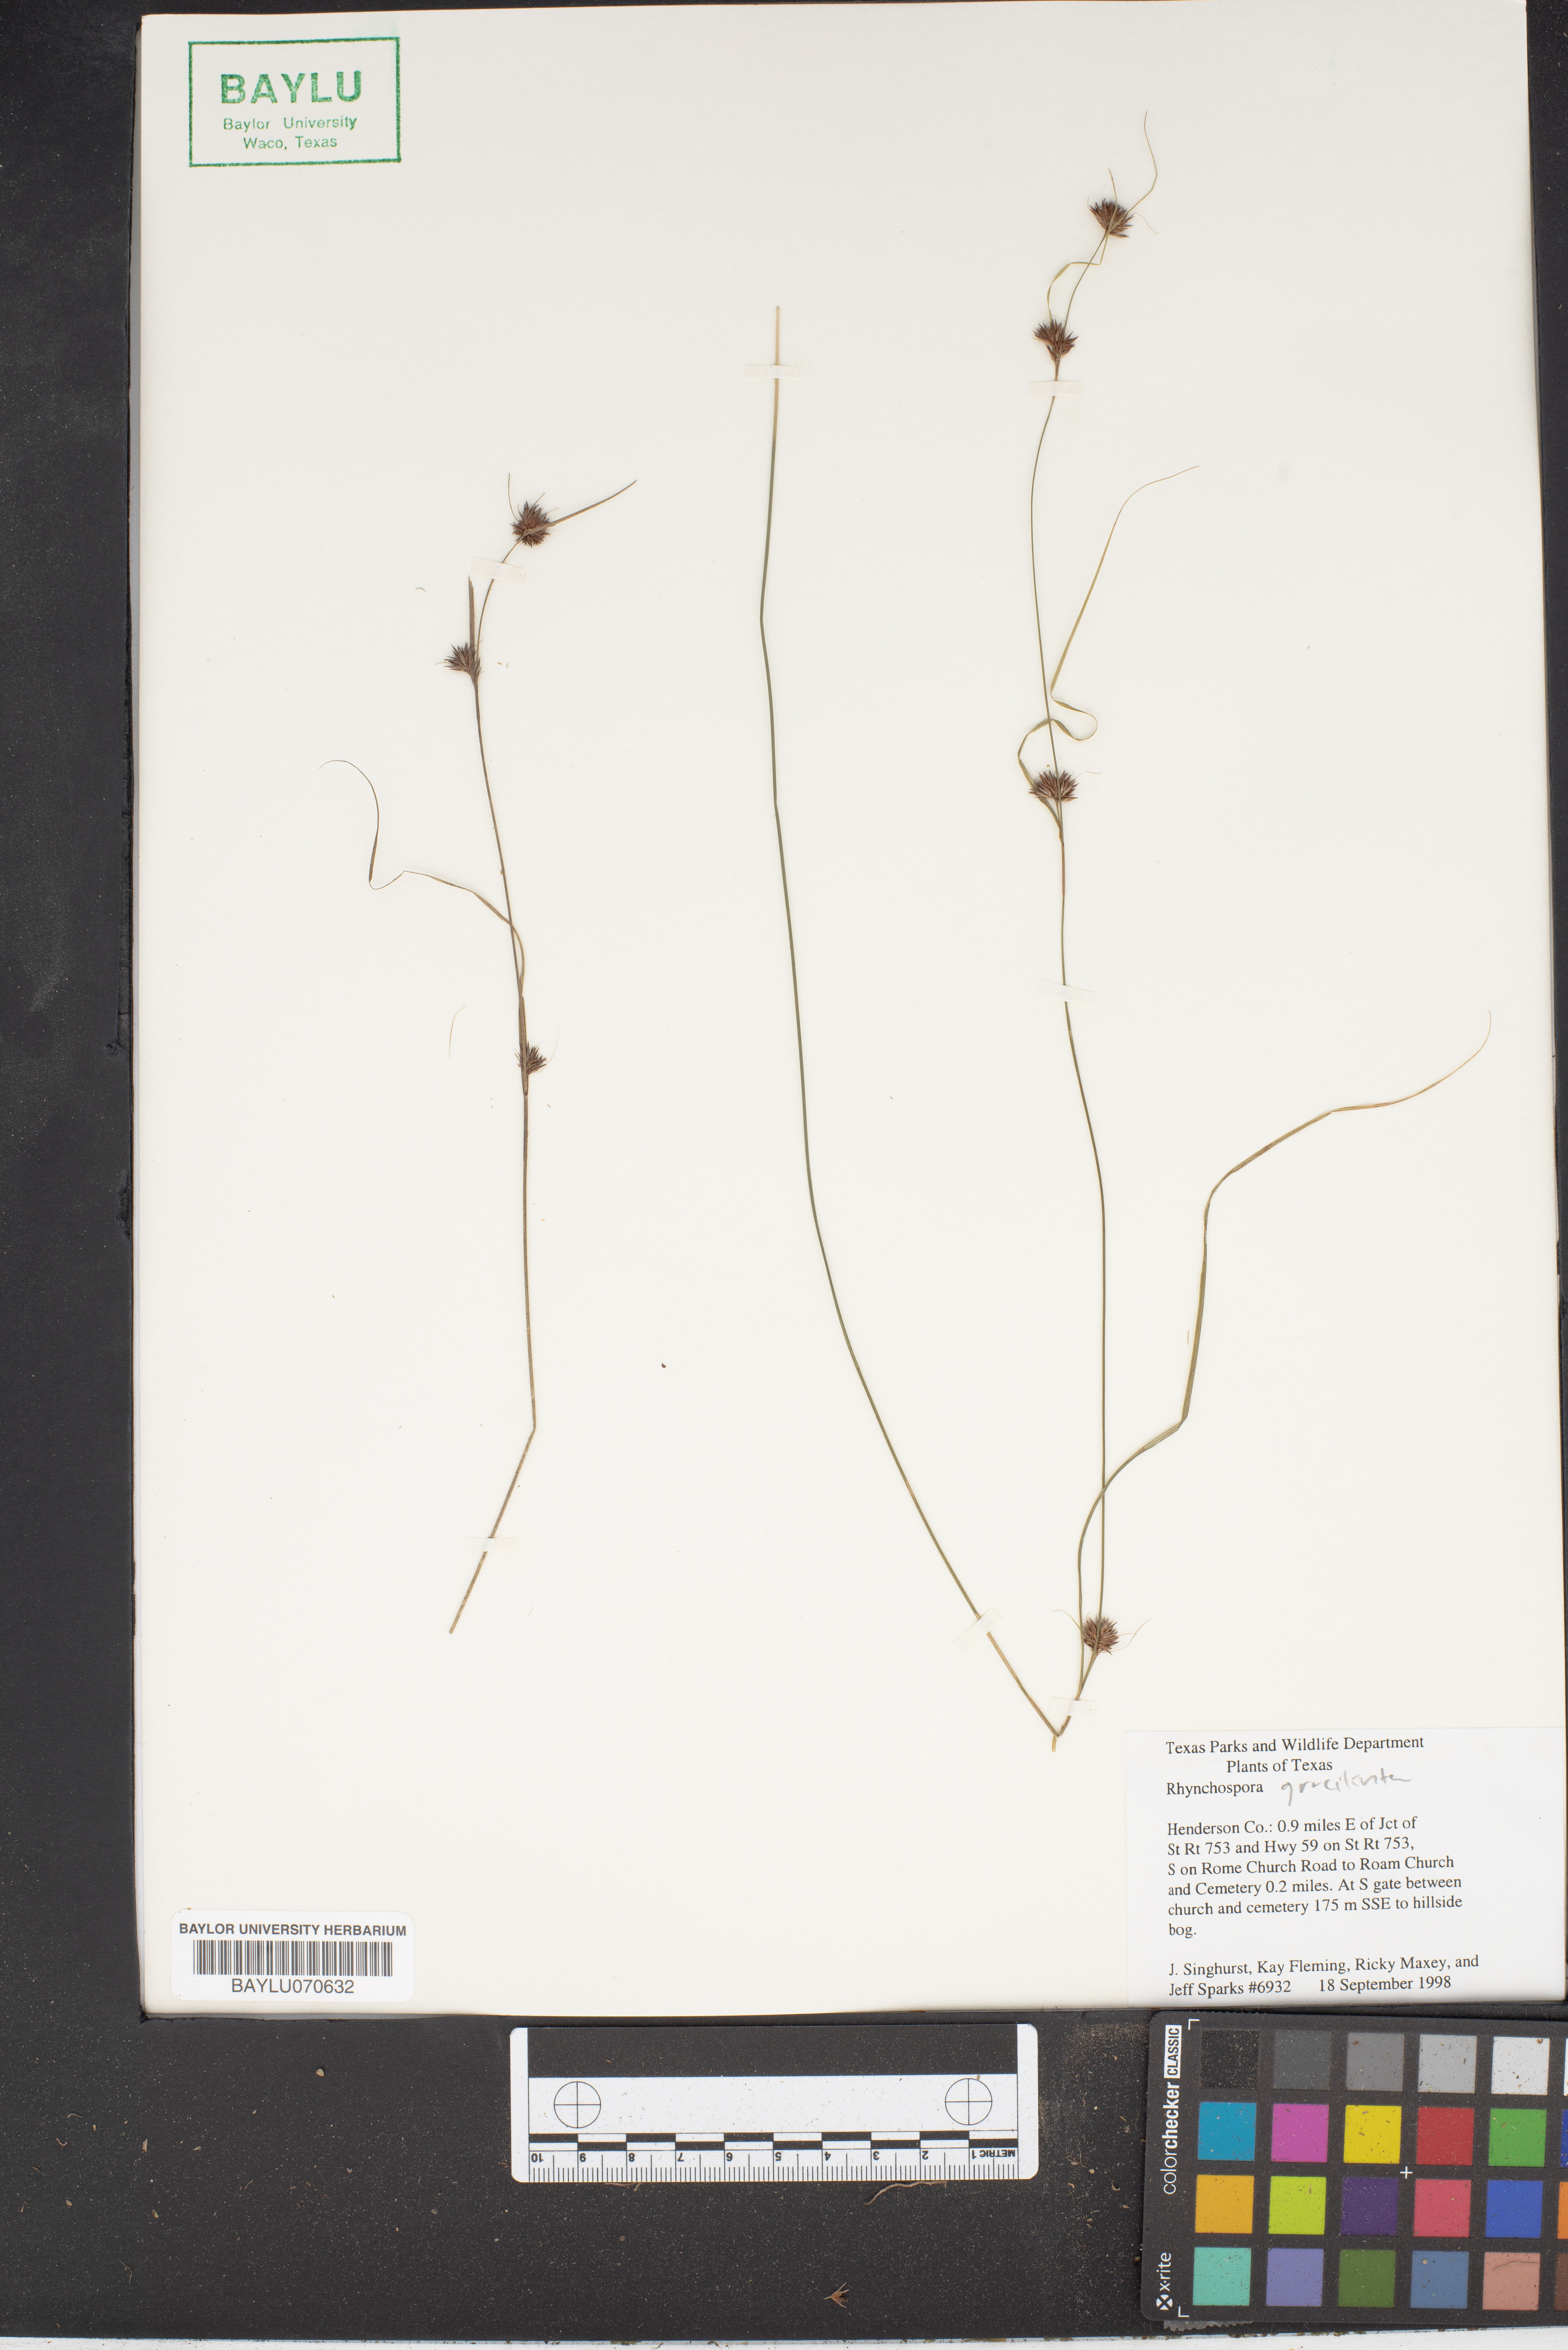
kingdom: Plantae
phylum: Tracheophyta
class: Liliopsida
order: Poales
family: Cyperaceae
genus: Rhynchospora
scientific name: Rhynchospora gracilenta
